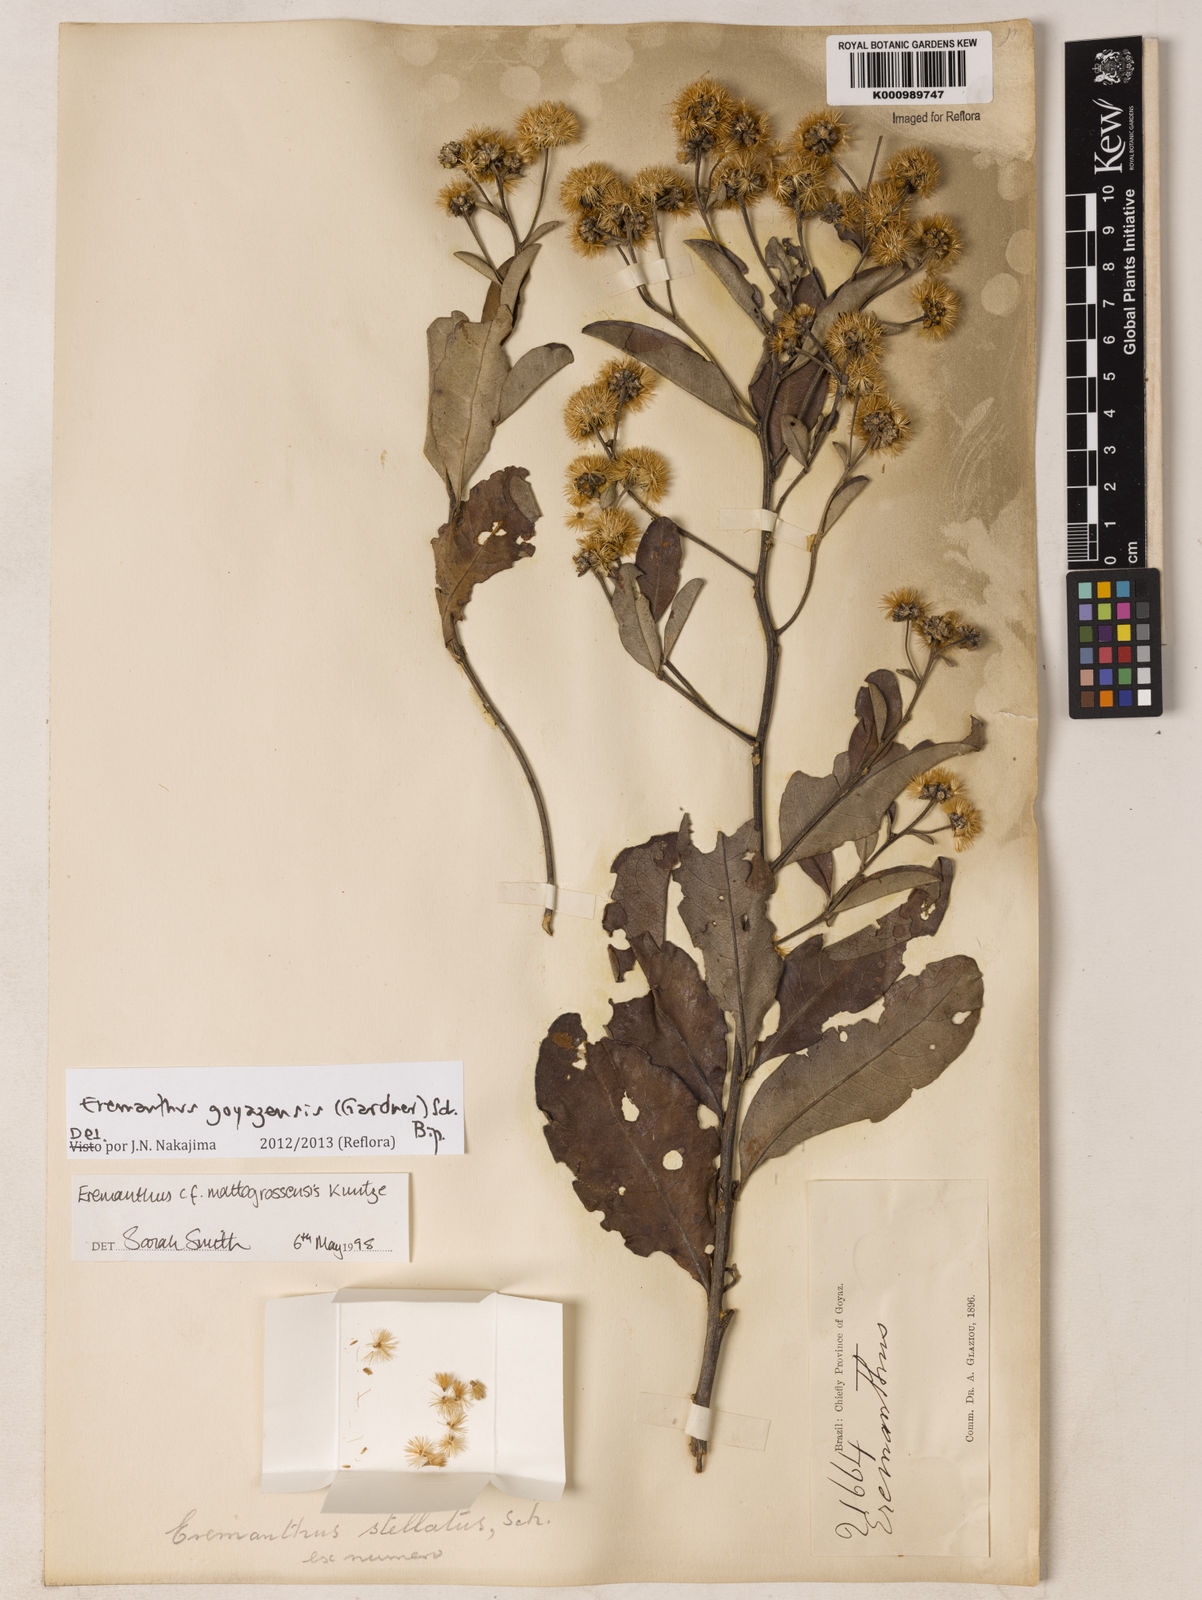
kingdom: Plantae
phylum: Tracheophyta
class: Magnoliopsida
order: Asterales
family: Asteraceae
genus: Eremanthus
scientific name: Eremanthus goyazensis
